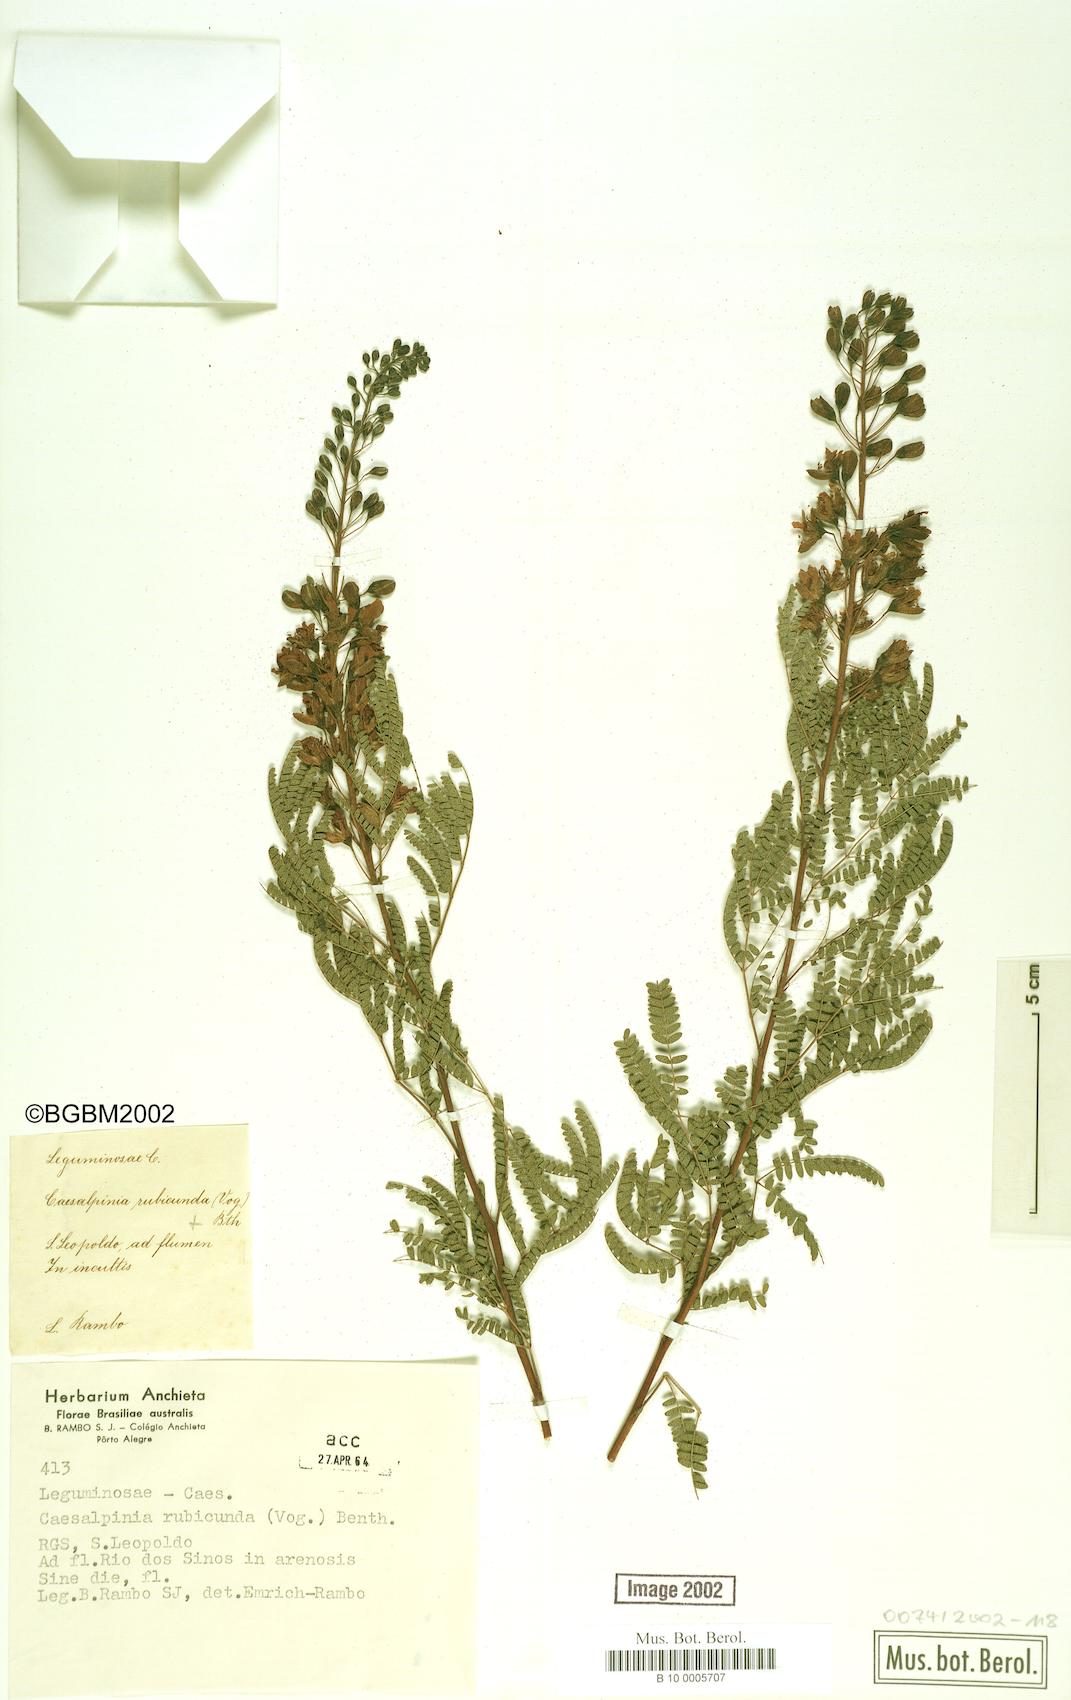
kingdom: Plantae
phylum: Tracheophyta
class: Magnoliopsida
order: Fabales
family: Fabaceae
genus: Pomaria
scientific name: Pomaria rubicunda
